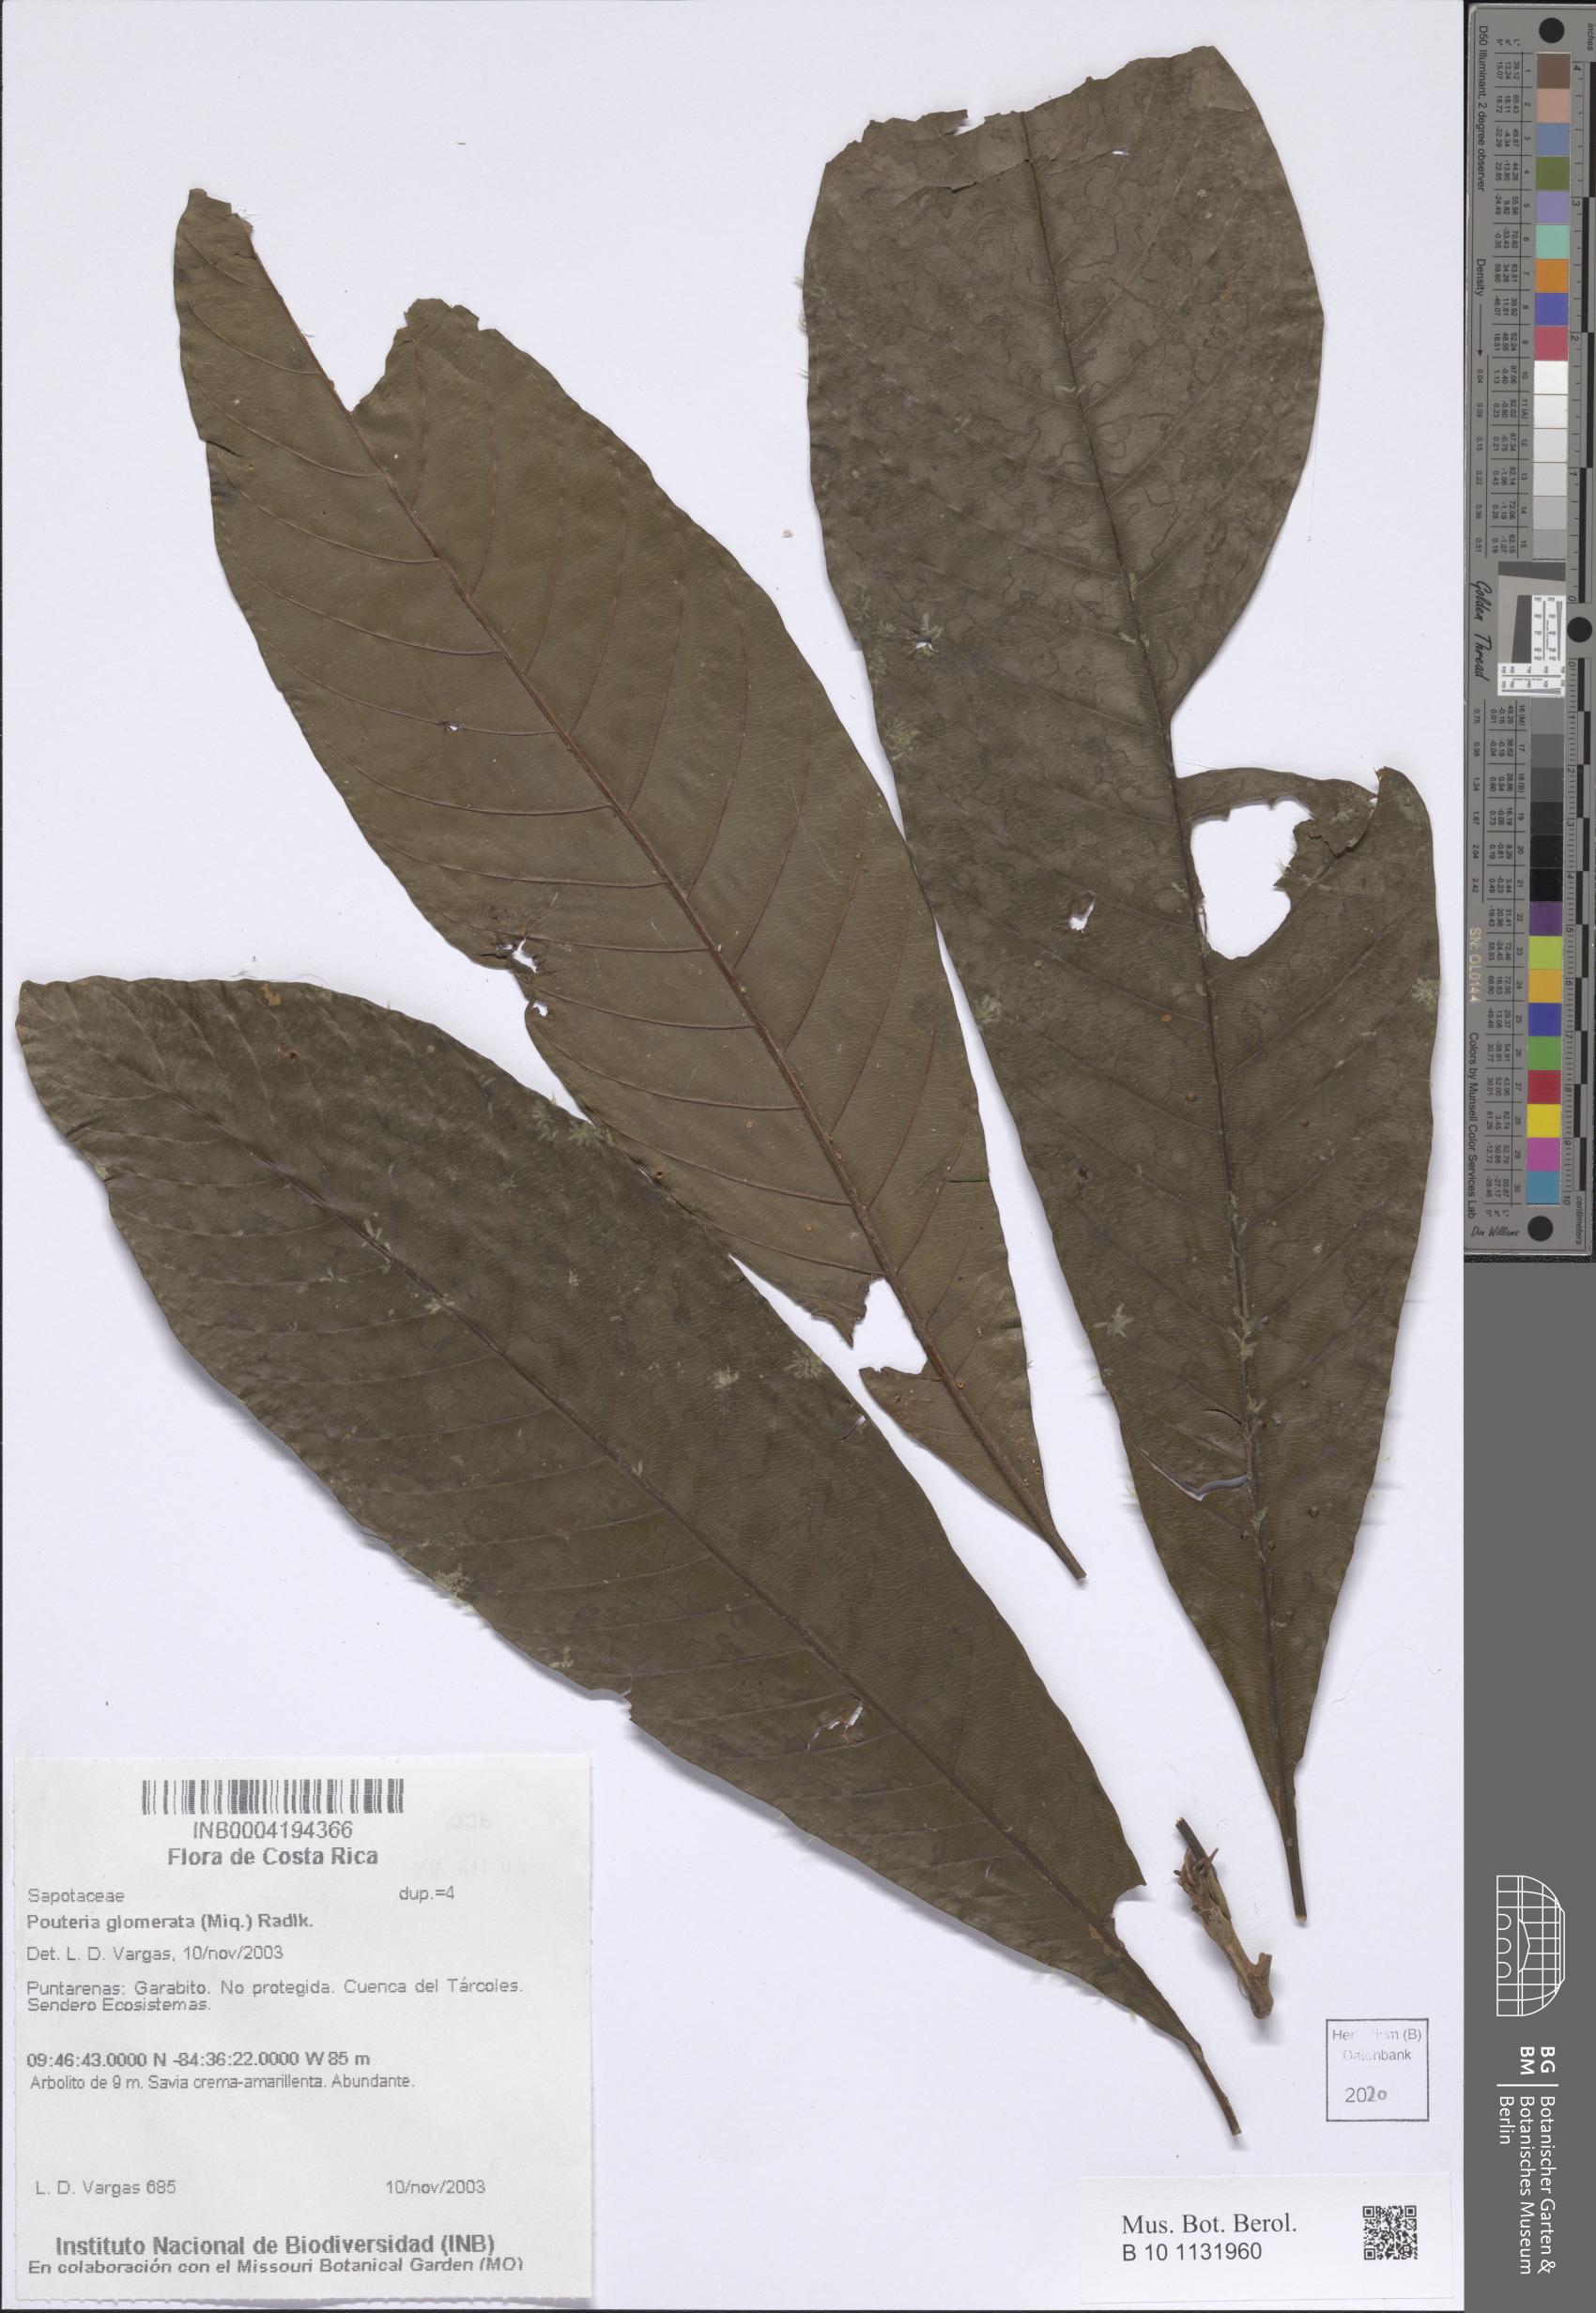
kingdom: Plantae
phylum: Tracheophyta
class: Magnoliopsida
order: Ericales
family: Sapotaceae
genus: Pouteria
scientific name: Pouteria glomerata
